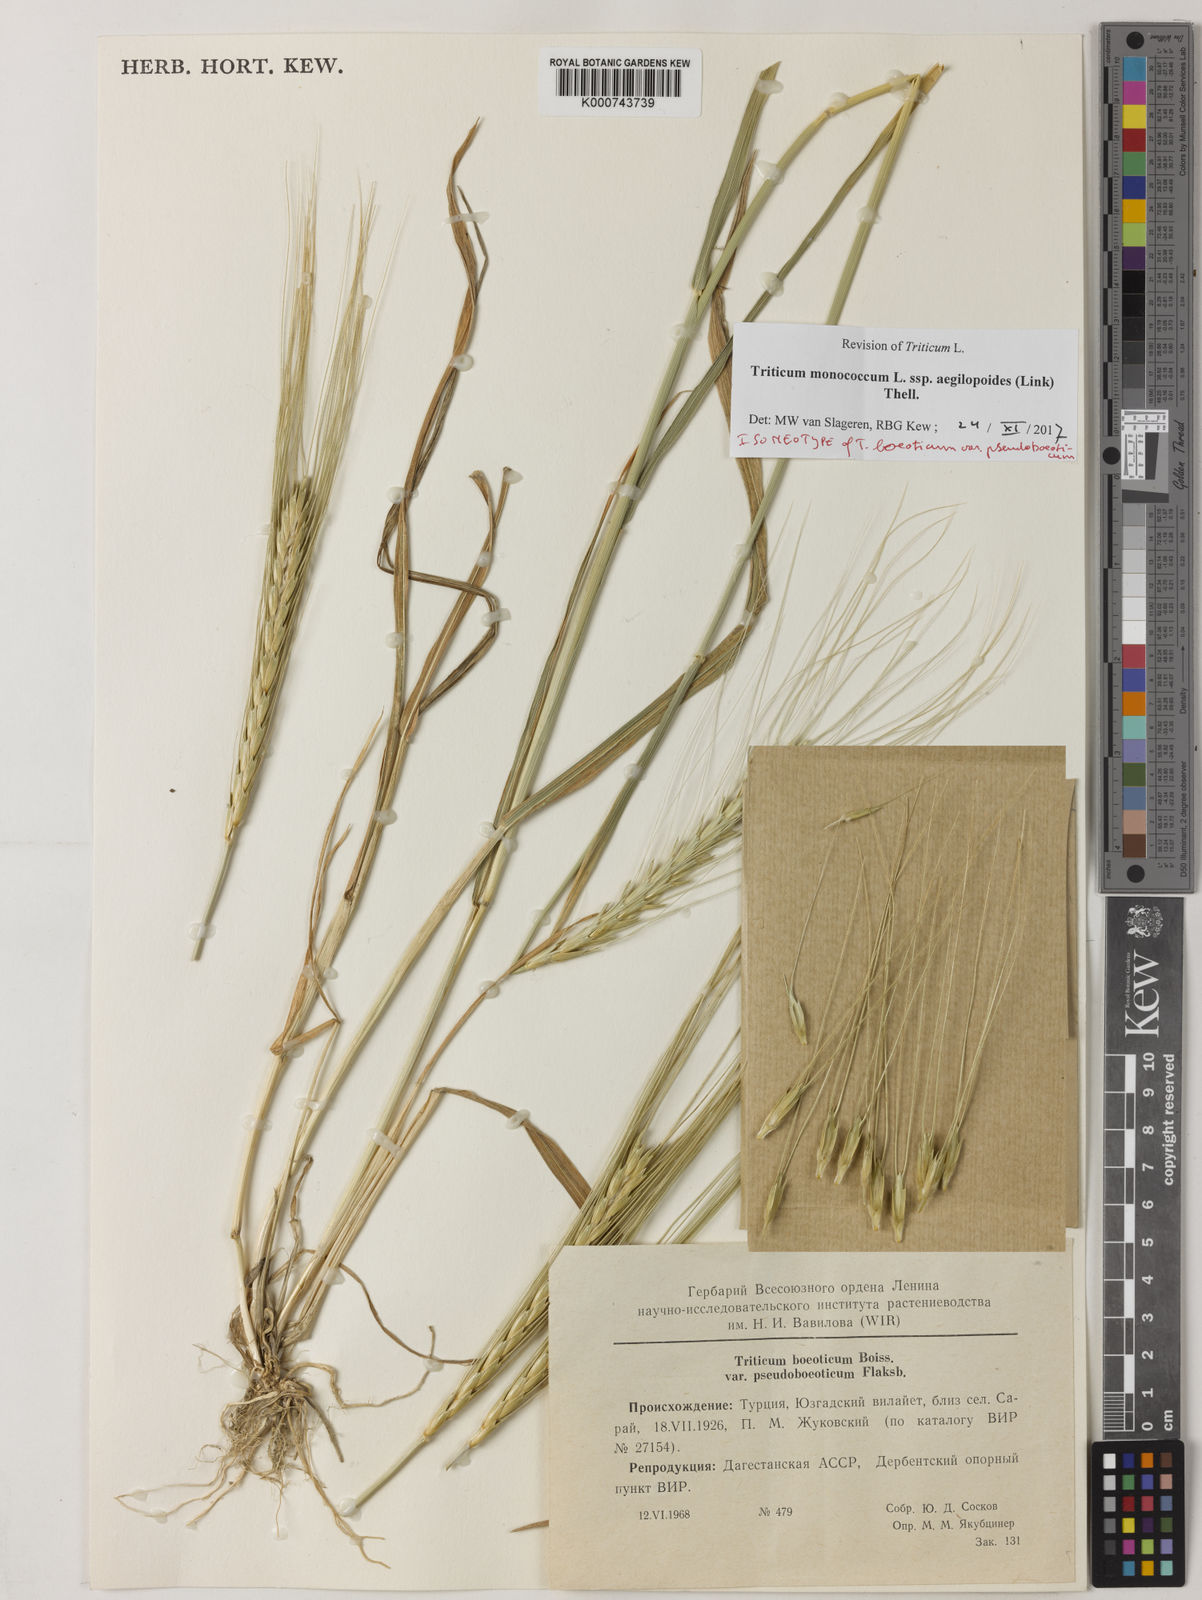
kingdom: Plantae
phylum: Tracheophyta
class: Liliopsida
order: Poales
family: Poaceae
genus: Triticum
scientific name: Triticum monococcum
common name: Einkorn
